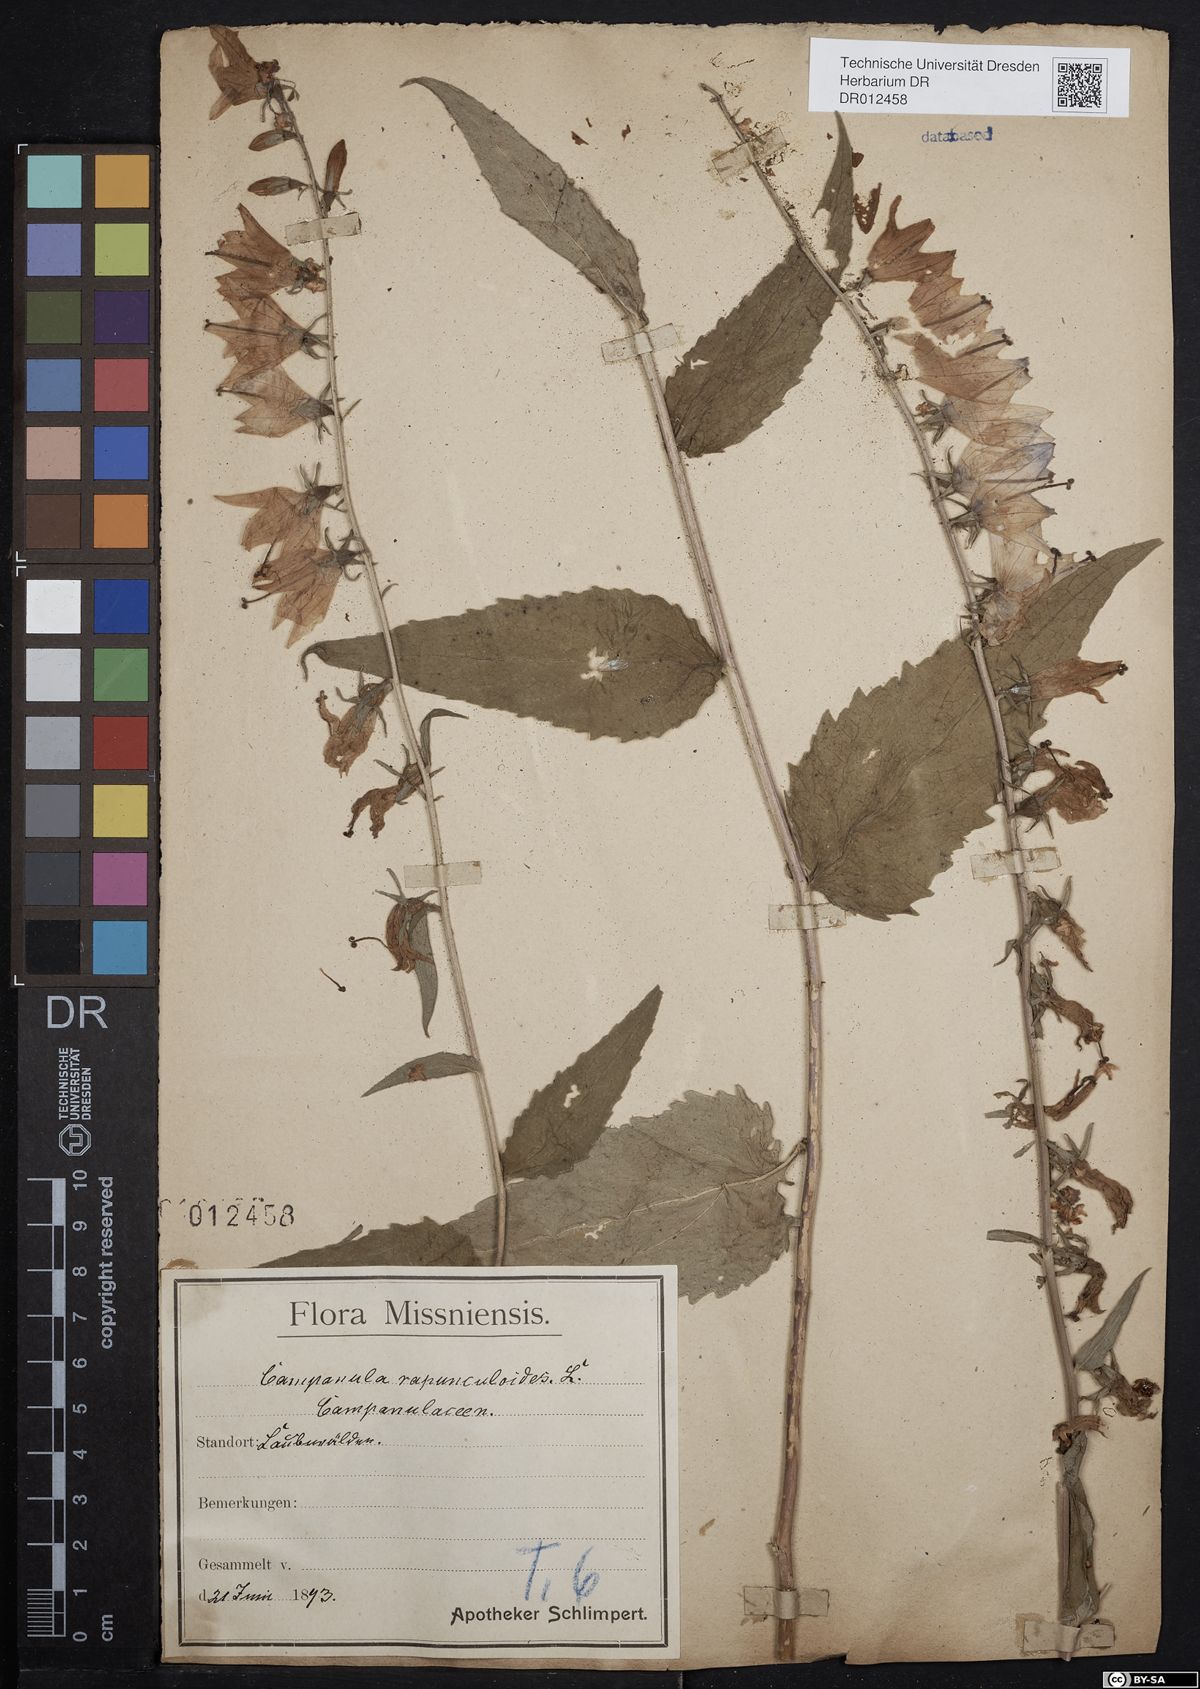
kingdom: Plantae
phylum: Tracheophyta
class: Magnoliopsida
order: Asterales
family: Campanulaceae
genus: Campanula
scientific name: Campanula rapunculoides
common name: Creeping bellflower
